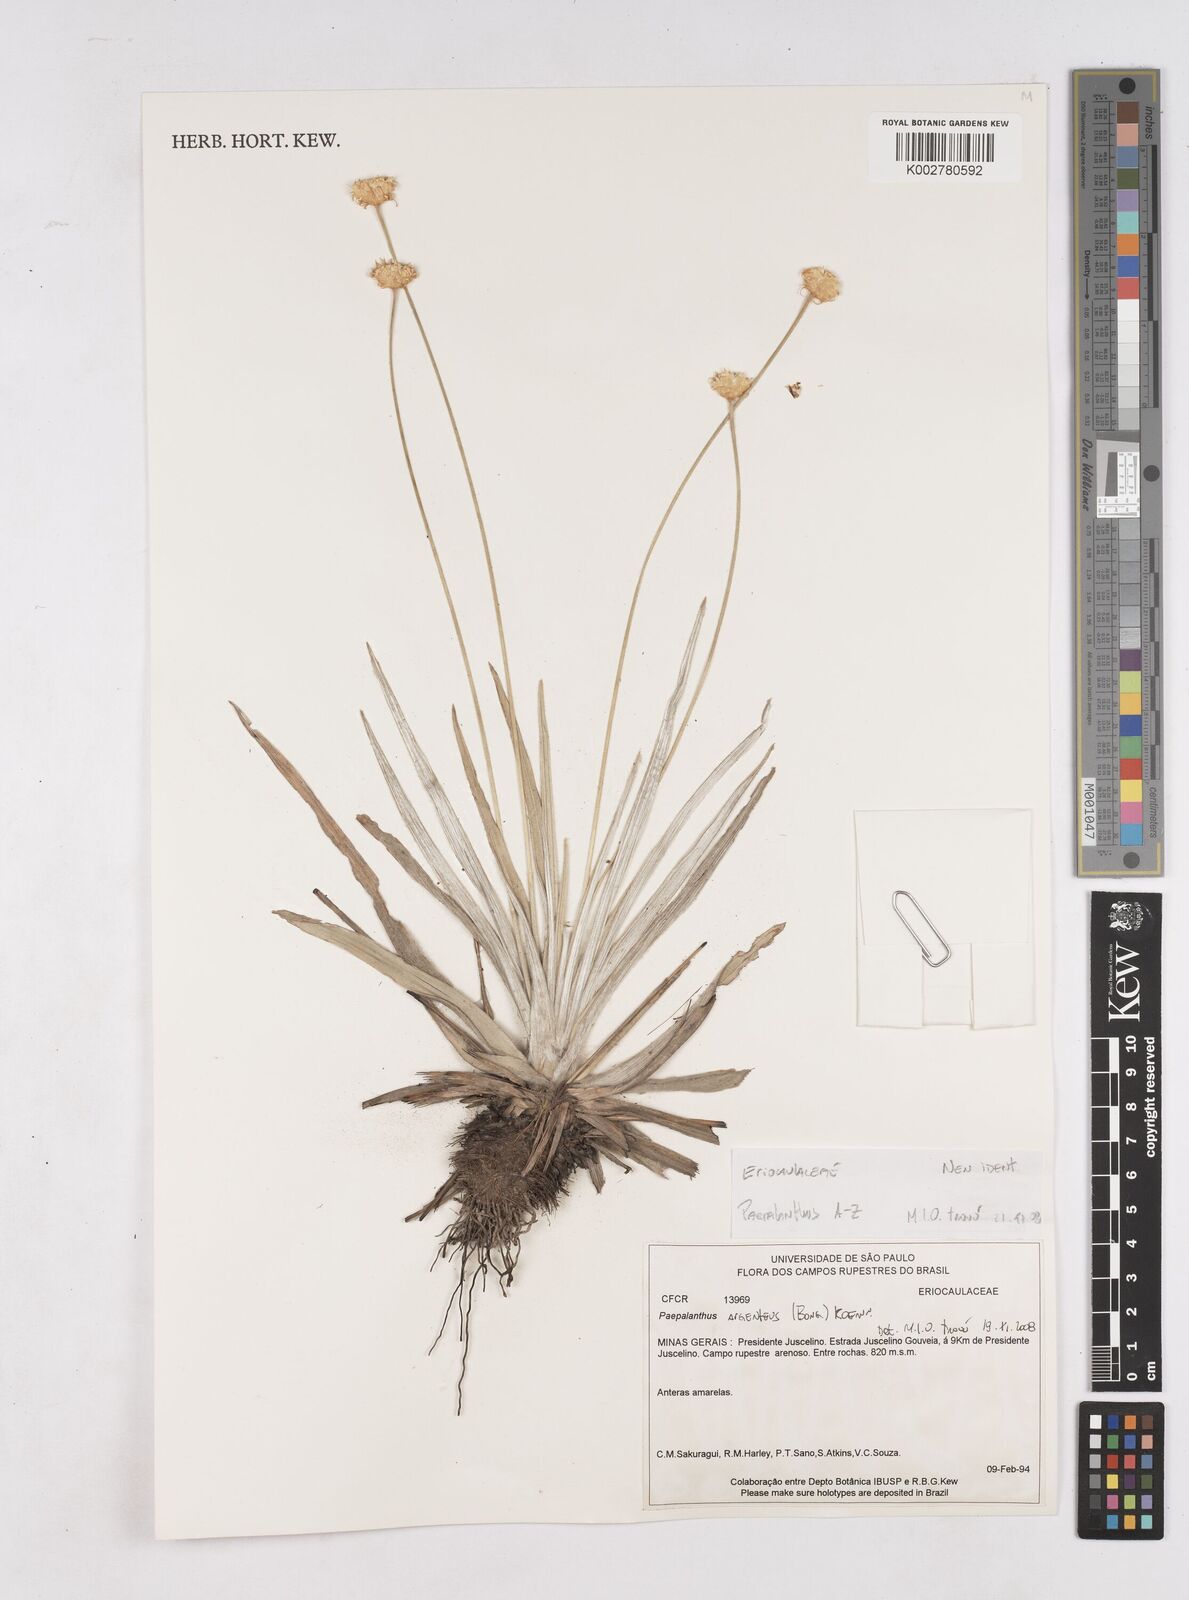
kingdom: Plantae
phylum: Tracheophyta
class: Liliopsida
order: Poales
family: Eriocaulaceae
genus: Paepalanthus
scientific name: Paepalanthus
